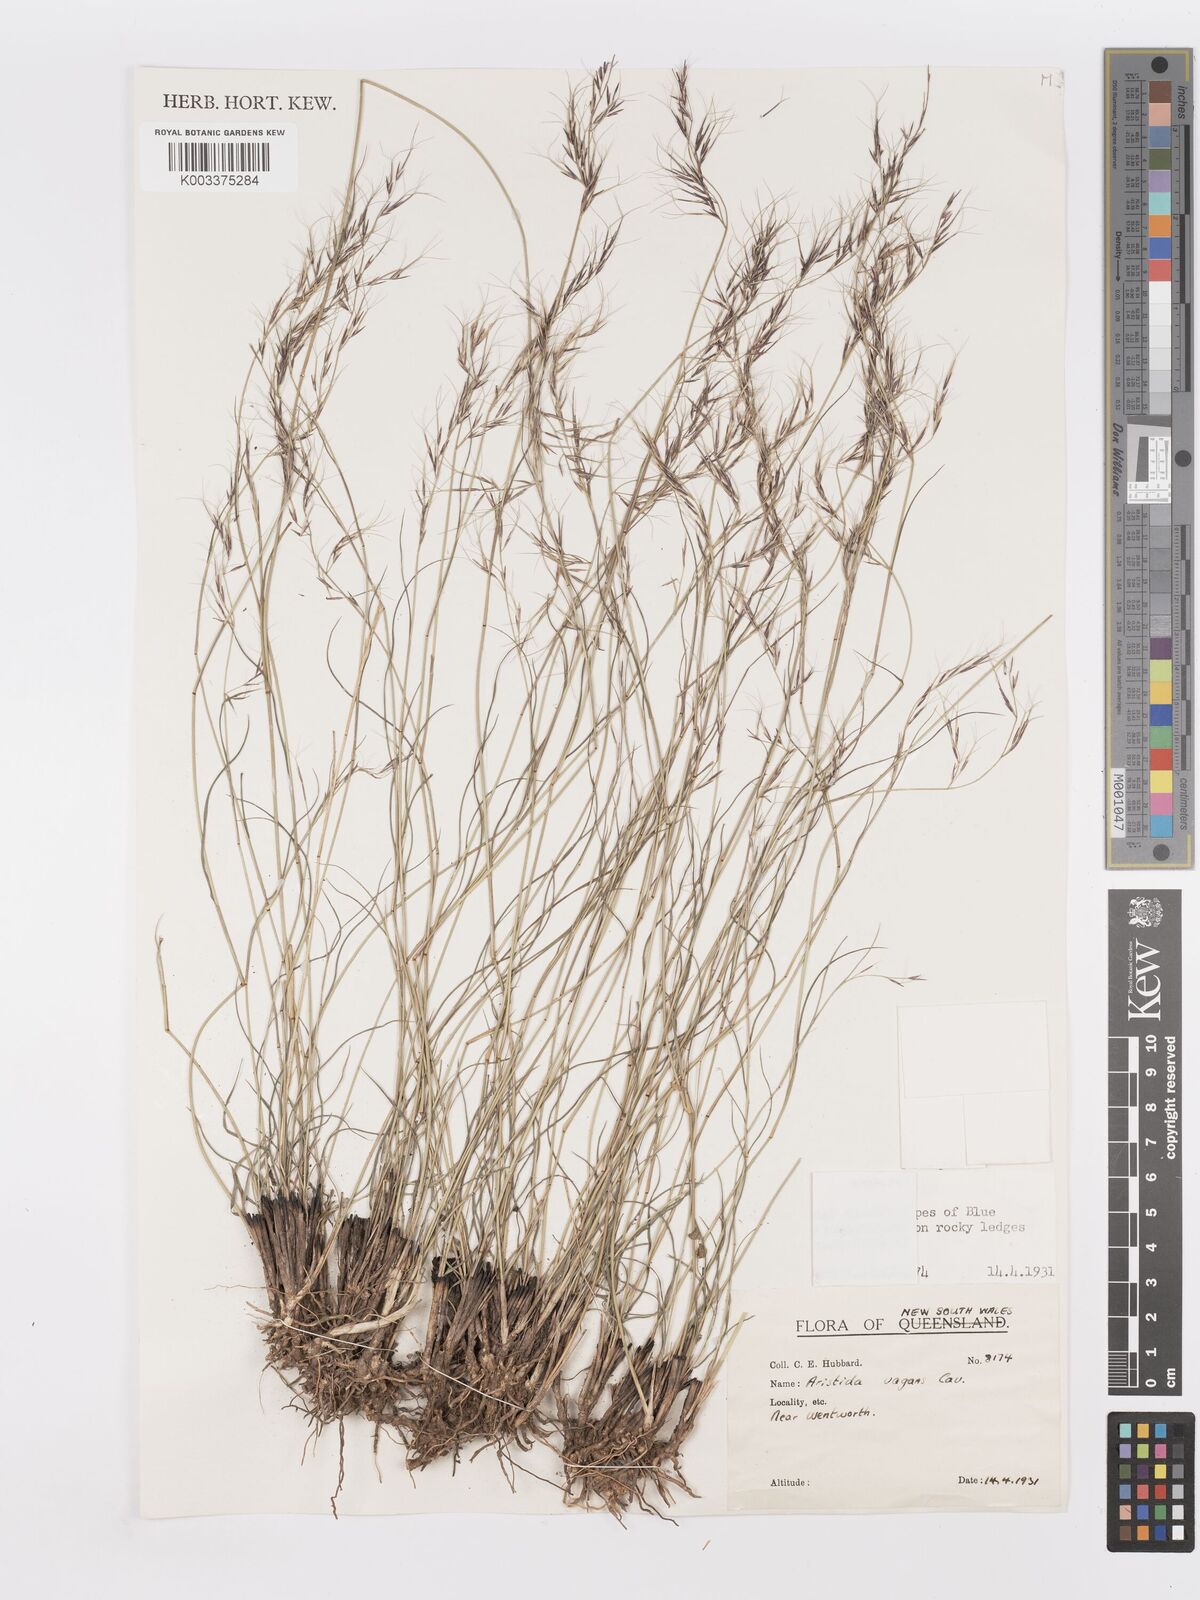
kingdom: Plantae
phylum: Tracheophyta
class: Liliopsida
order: Poales
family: Poaceae
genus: Aristida
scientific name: Aristida vagans
